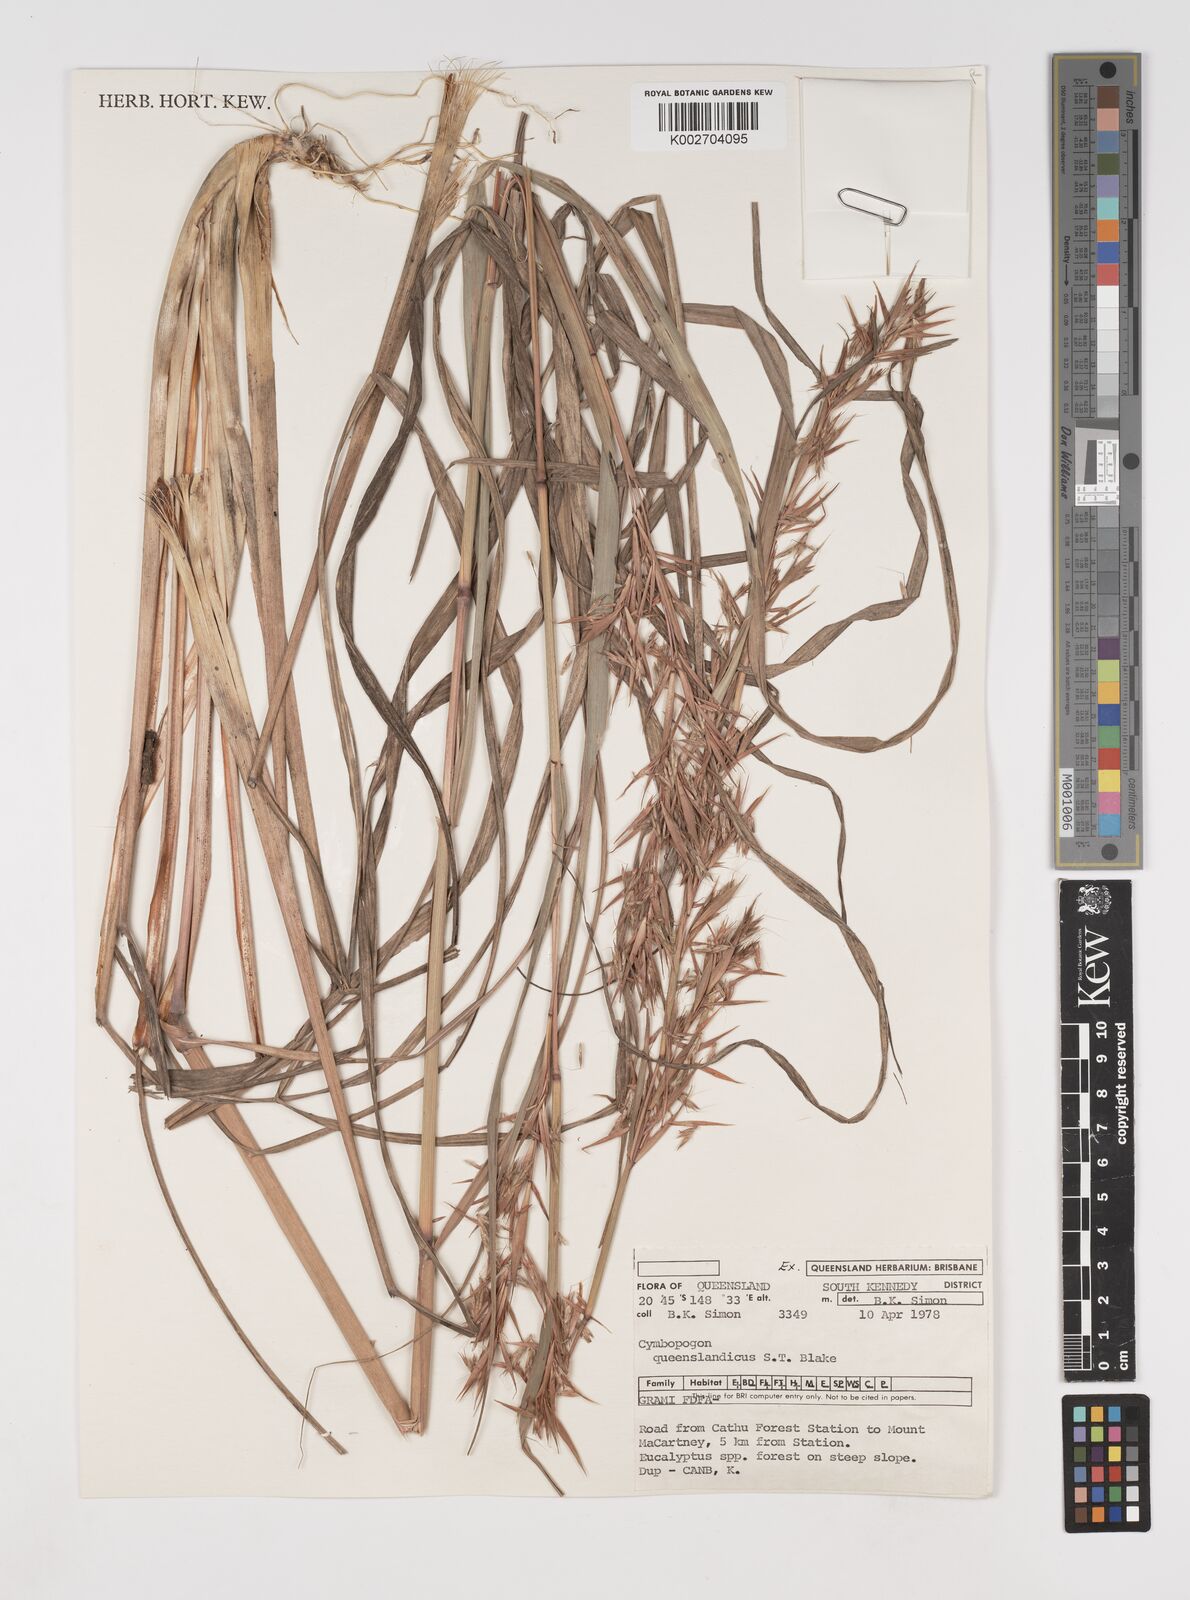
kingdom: Plantae
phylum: Tracheophyta
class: Liliopsida
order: Poales
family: Poaceae
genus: Cymbopogon
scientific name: Cymbopogon queenslandicus
